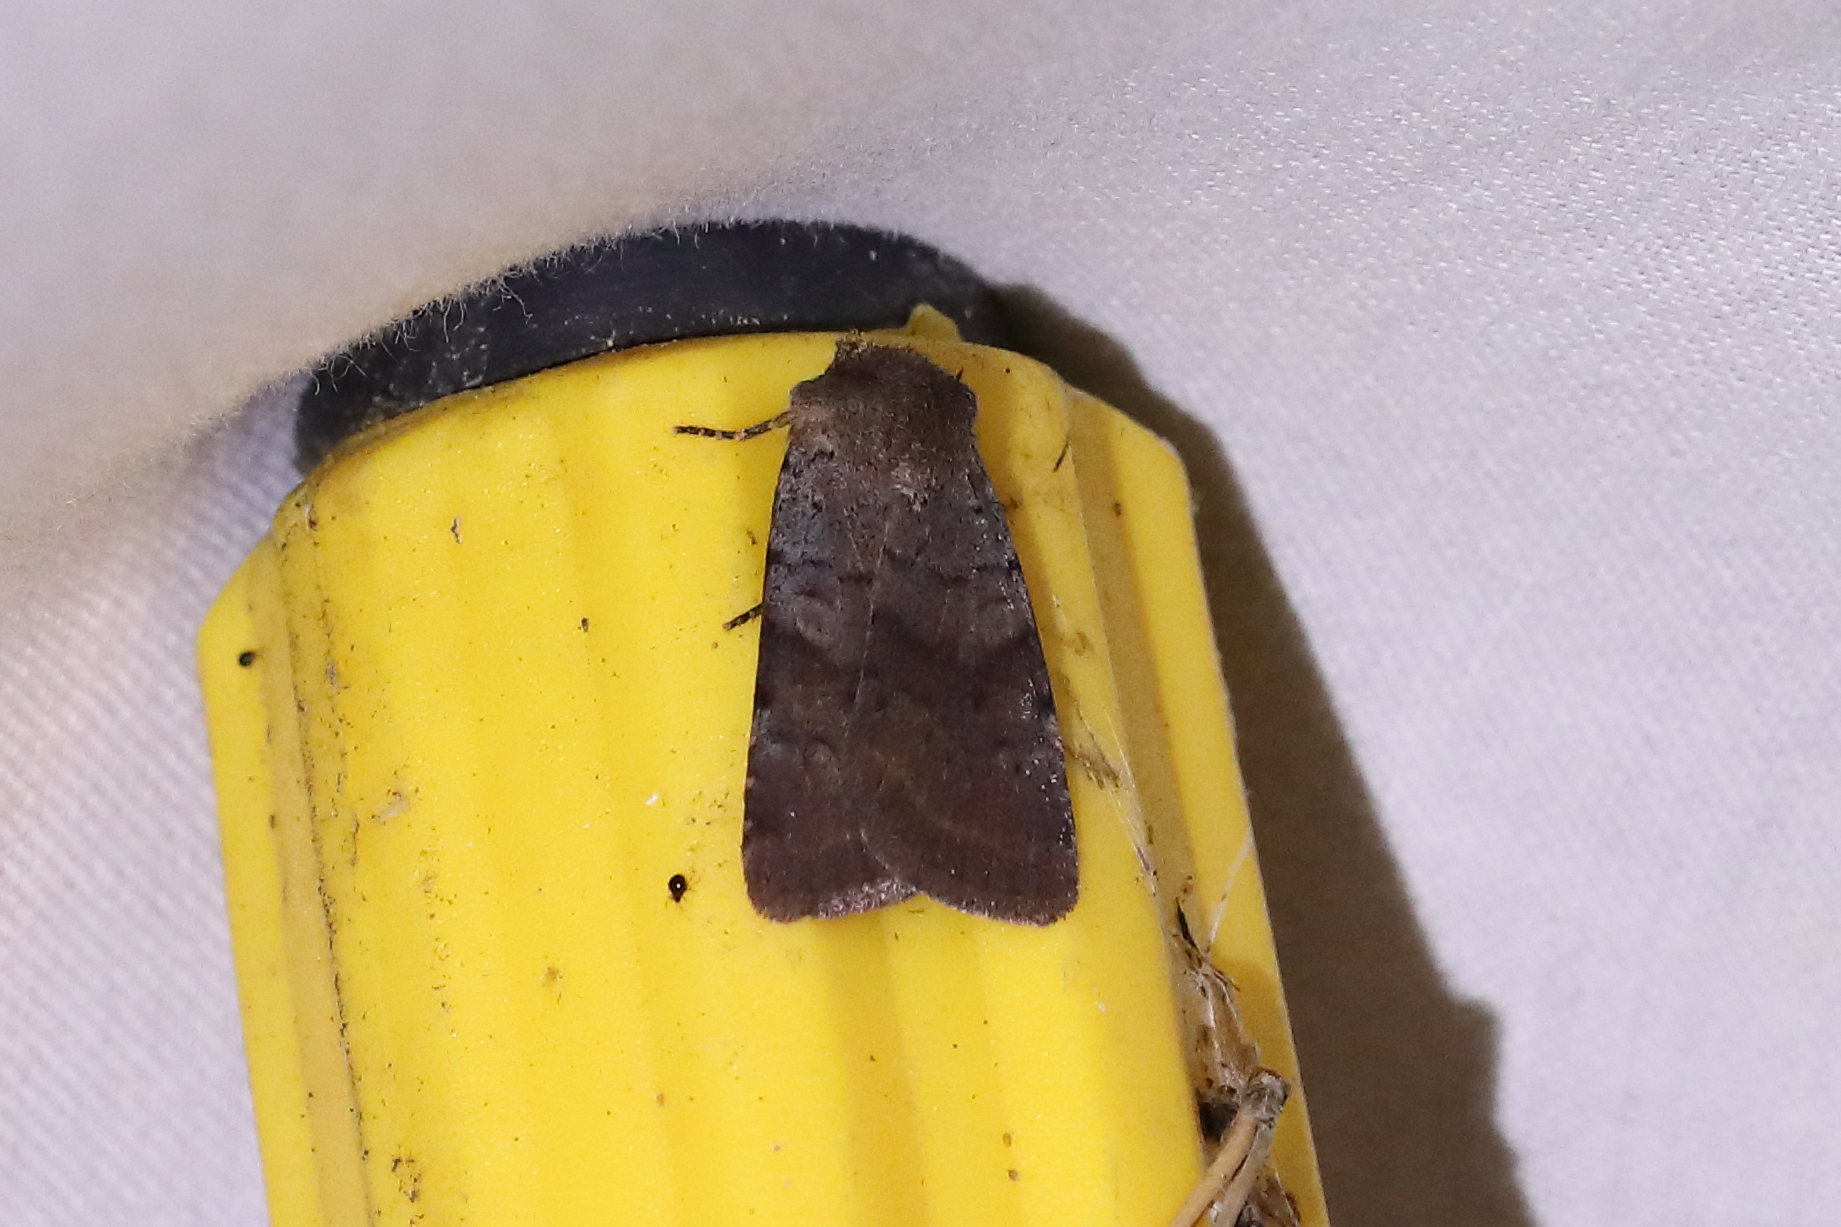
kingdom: Animalia
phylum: Arthropoda
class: Insecta
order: Lepidoptera
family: Noctuidae
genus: Protolampra
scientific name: Protolampra sobrina
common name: Cousin german
